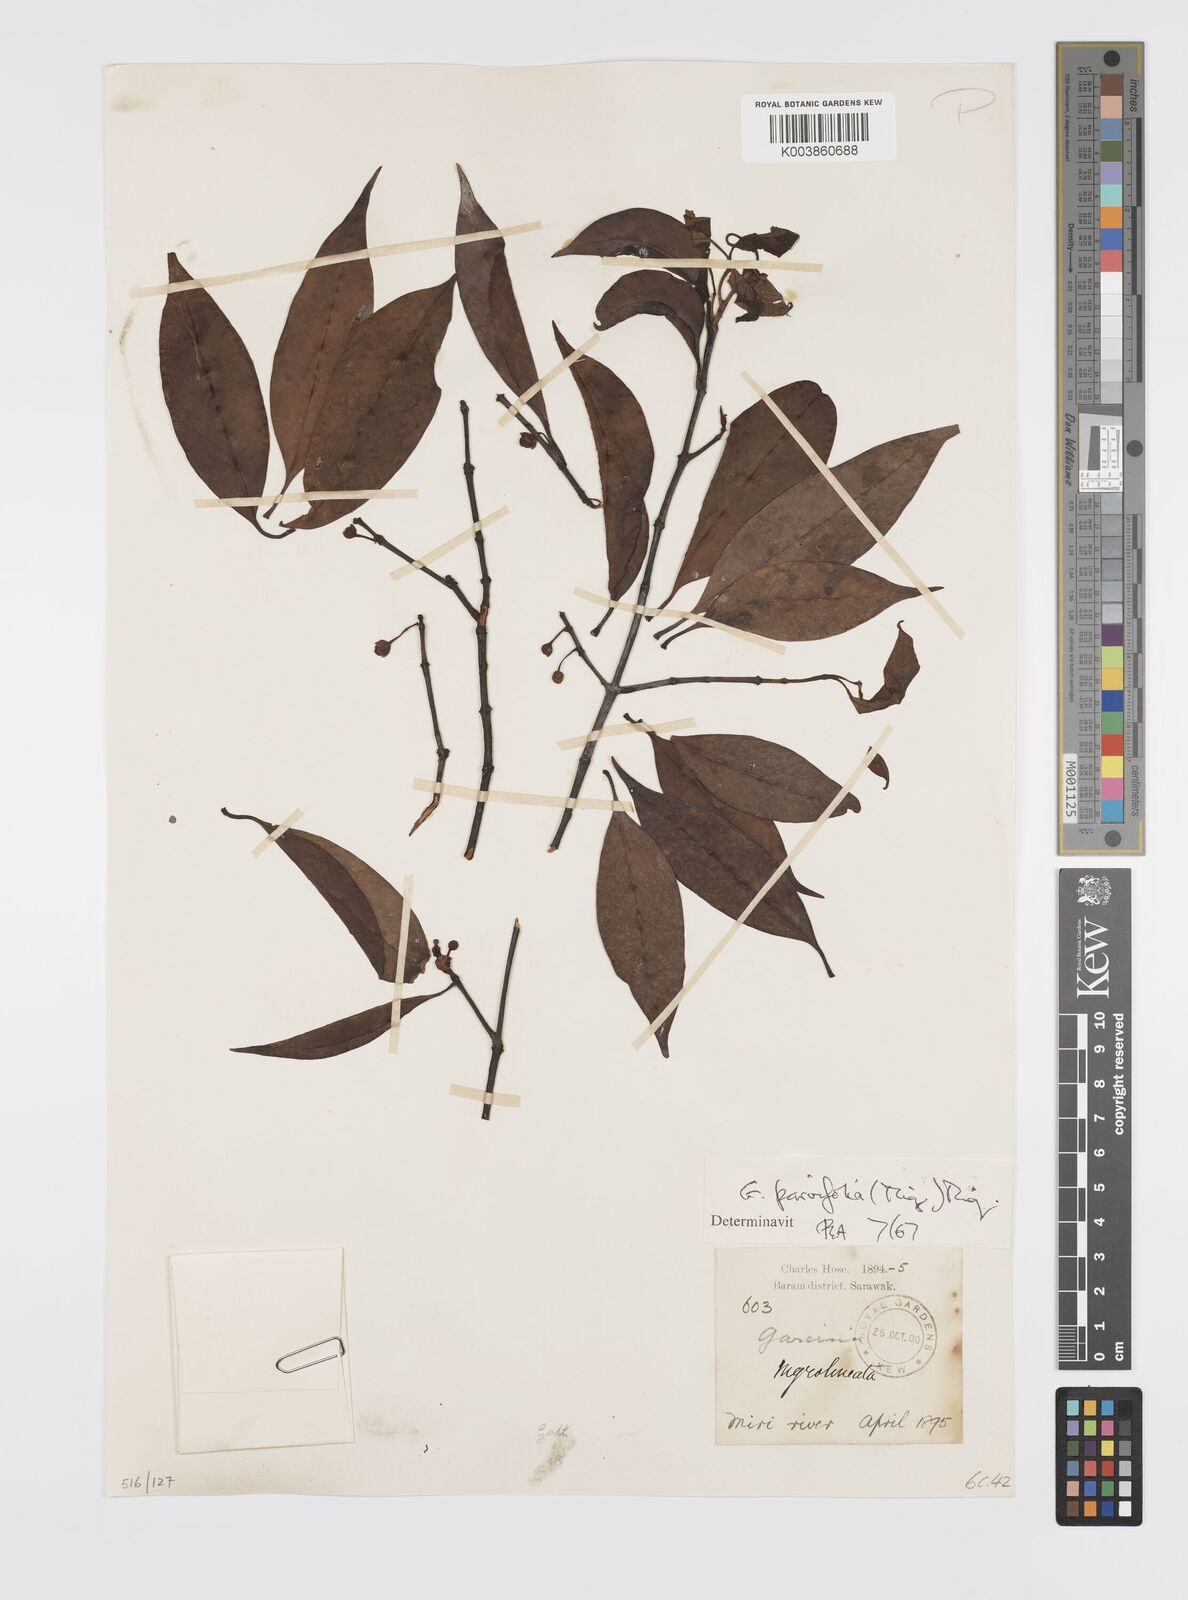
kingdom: Plantae
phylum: Tracheophyta
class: Magnoliopsida
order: Malpighiales
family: Clusiaceae
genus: Garcinia
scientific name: Garcinia parvifolia
